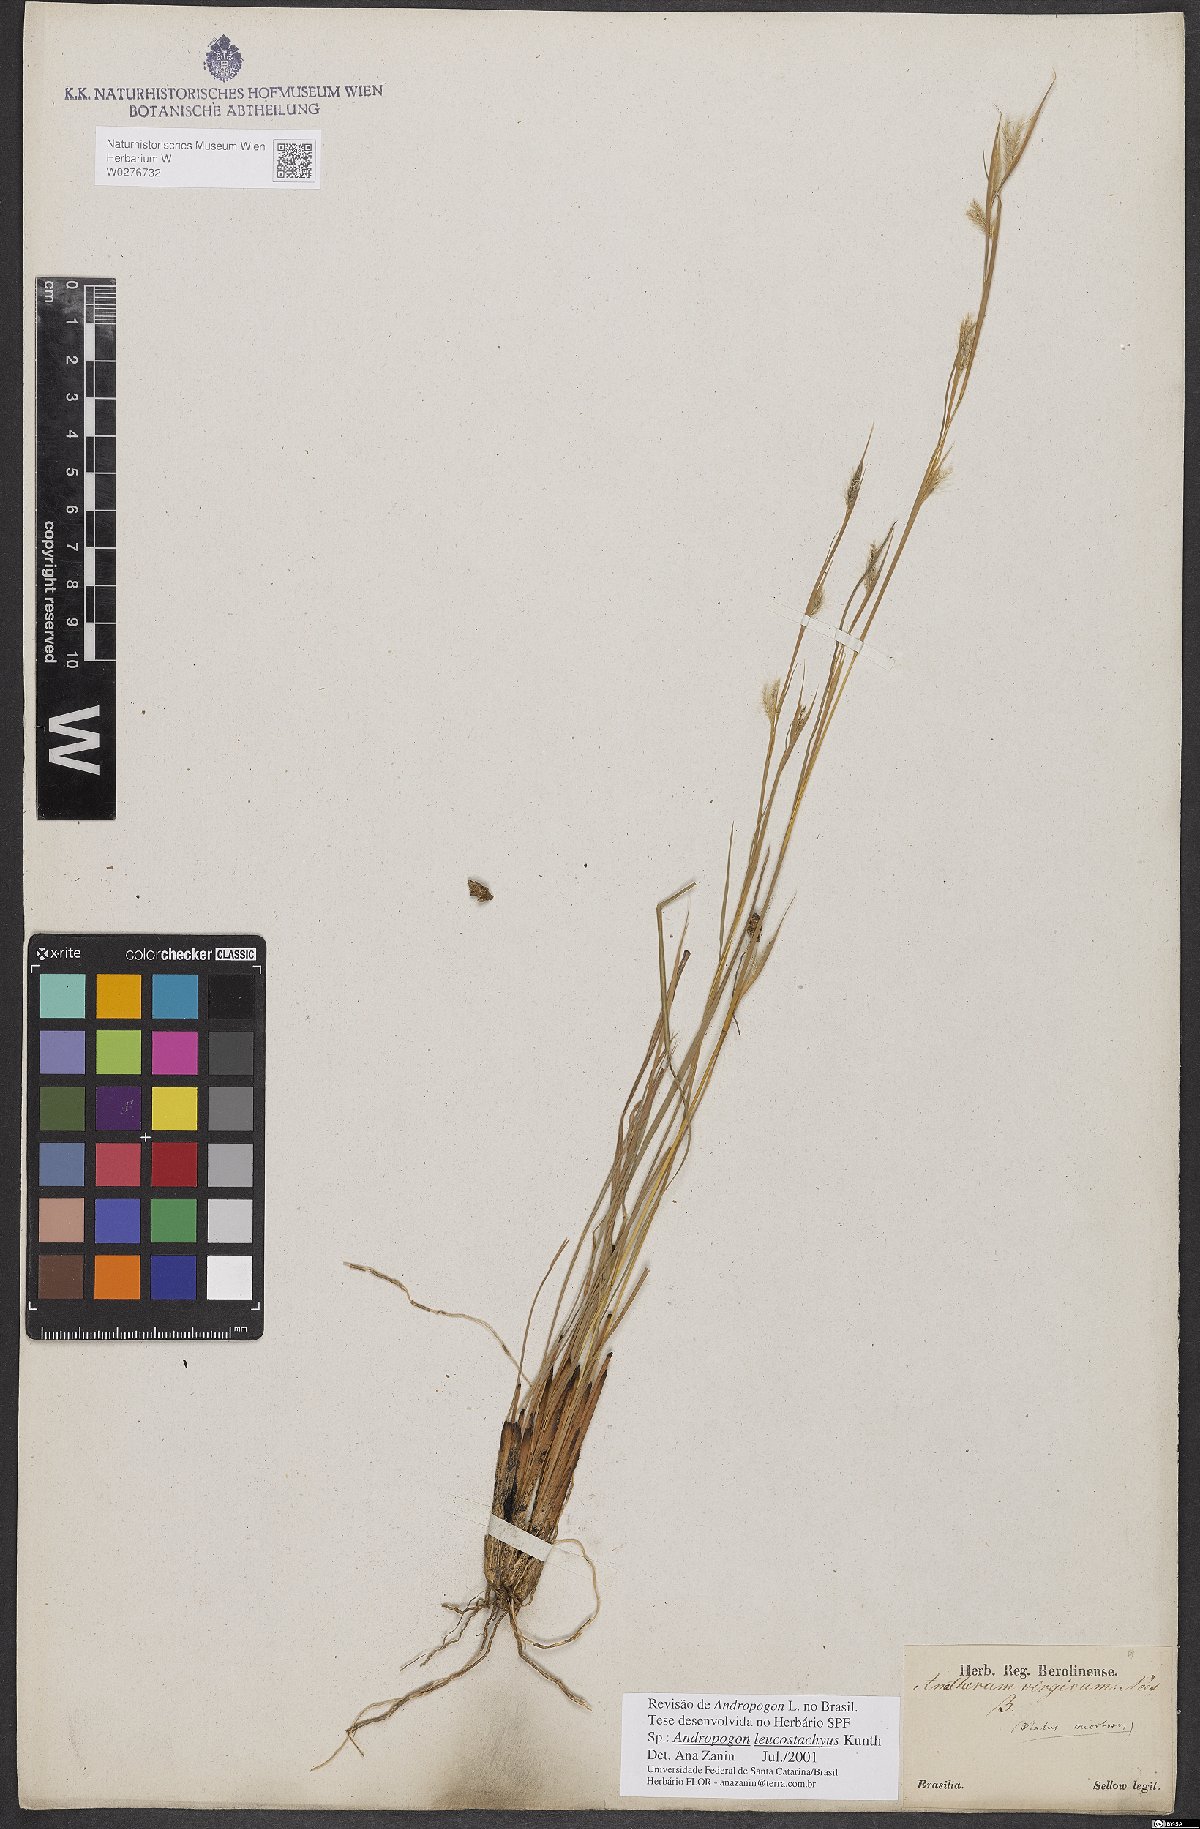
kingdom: Plantae
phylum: Tracheophyta
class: Liliopsida
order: Poales
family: Poaceae
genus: Andropogon
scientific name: Andropogon leucostachyus
